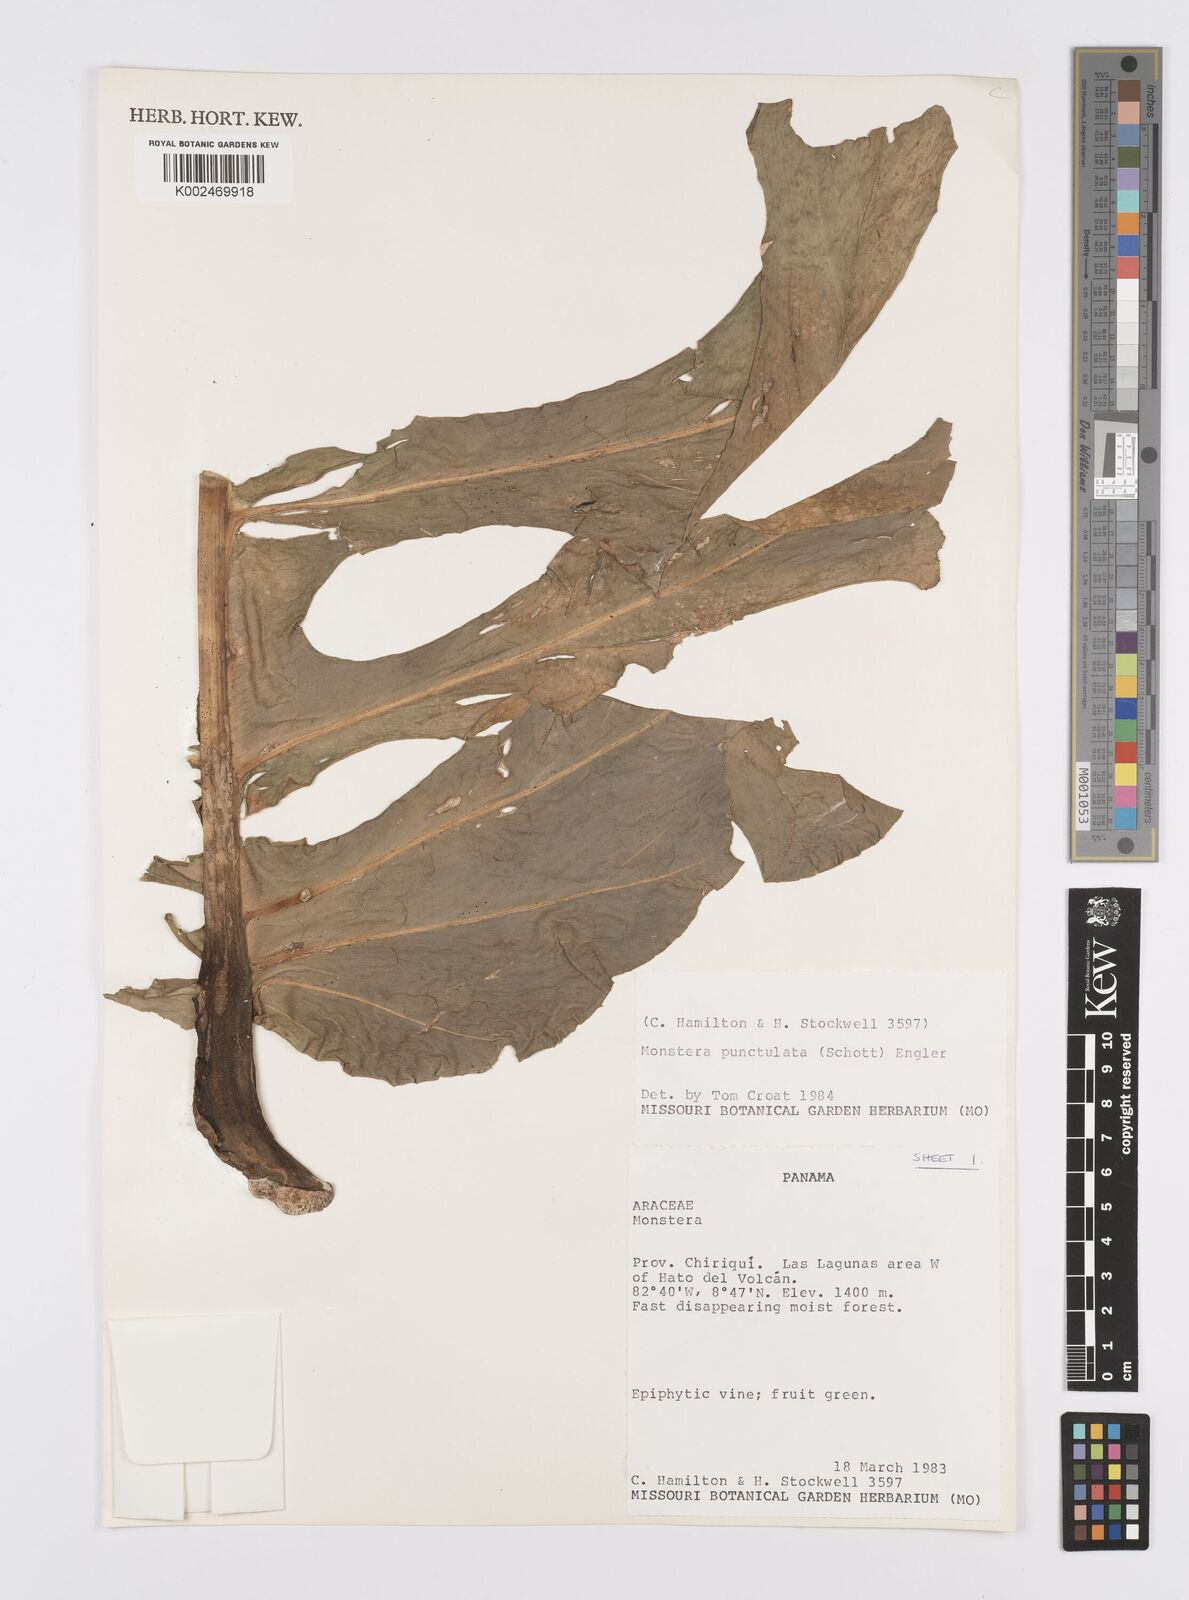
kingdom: Plantae
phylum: Tracheophyta
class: Liliopsida
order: Alismatales
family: Araceae
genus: Monstera
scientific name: Monstera punctulata
